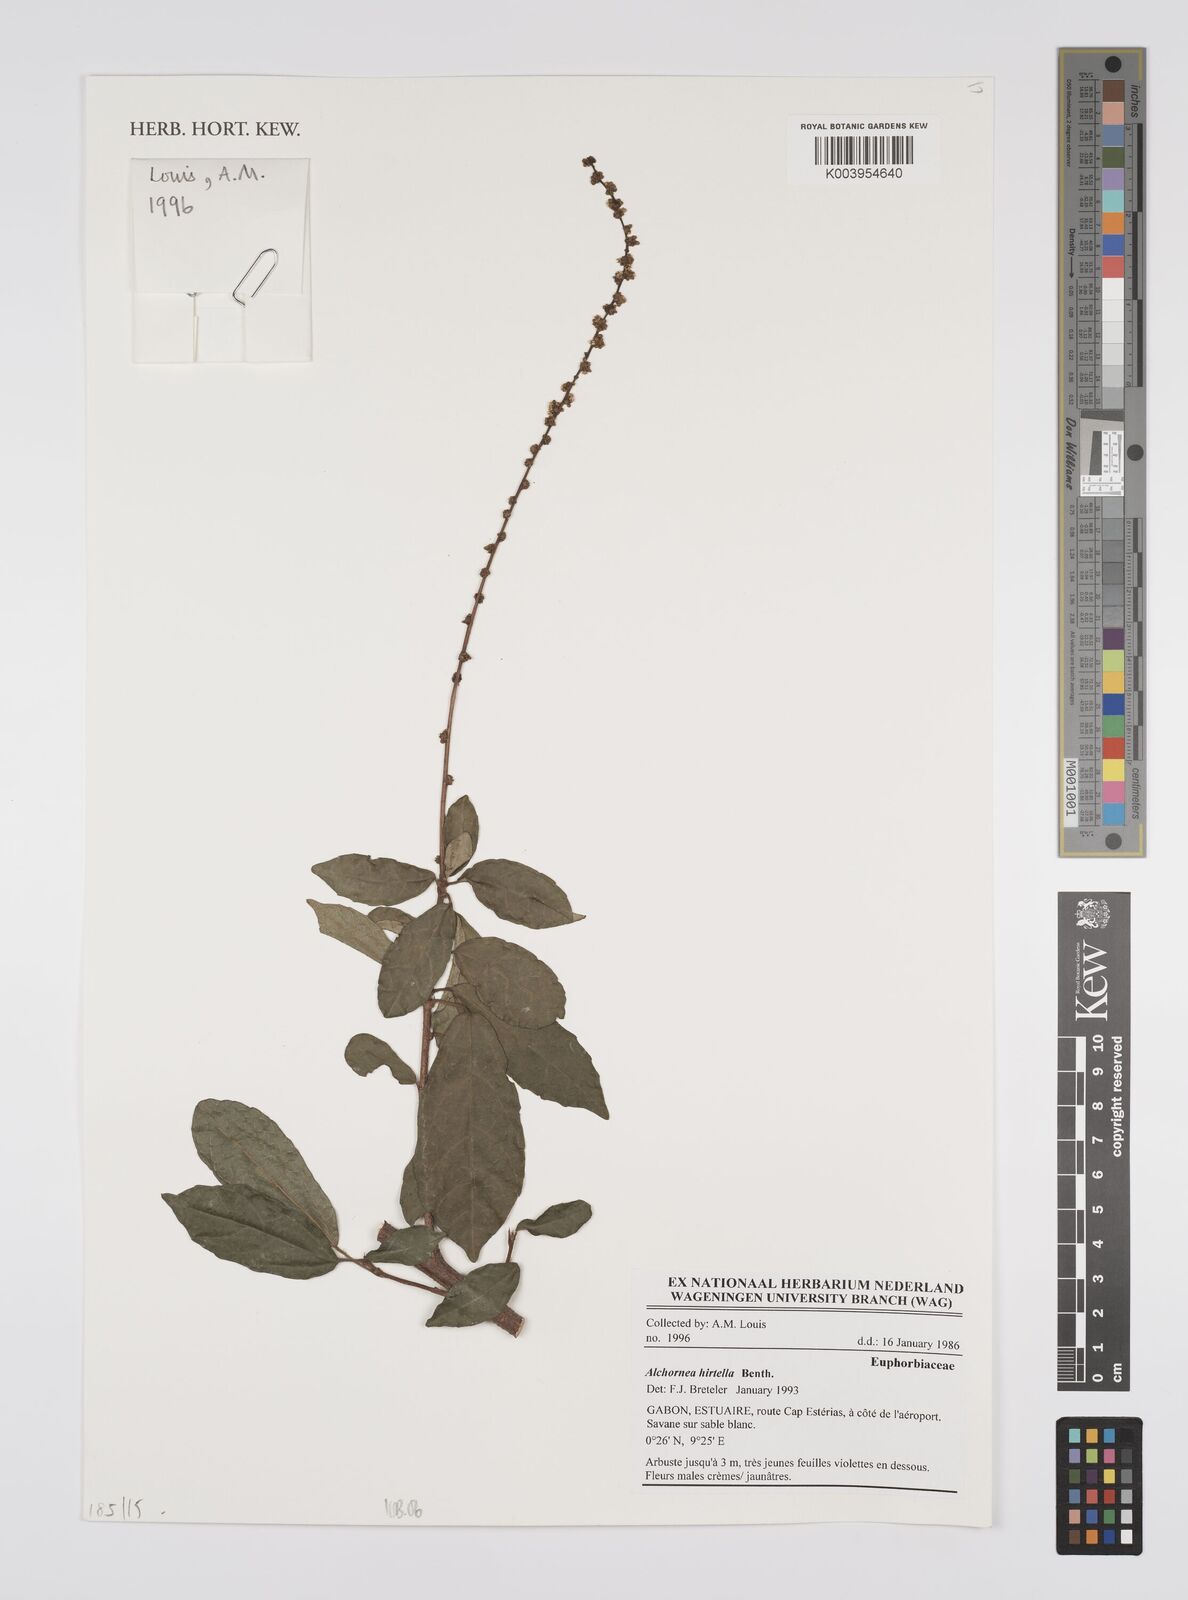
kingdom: Plantae
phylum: Tracheophyta
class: Magnoliopsida
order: Malpighiales
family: Euphorbiaceae
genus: Alchornea
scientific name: Alchornea hirtella
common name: Forest bead-string
